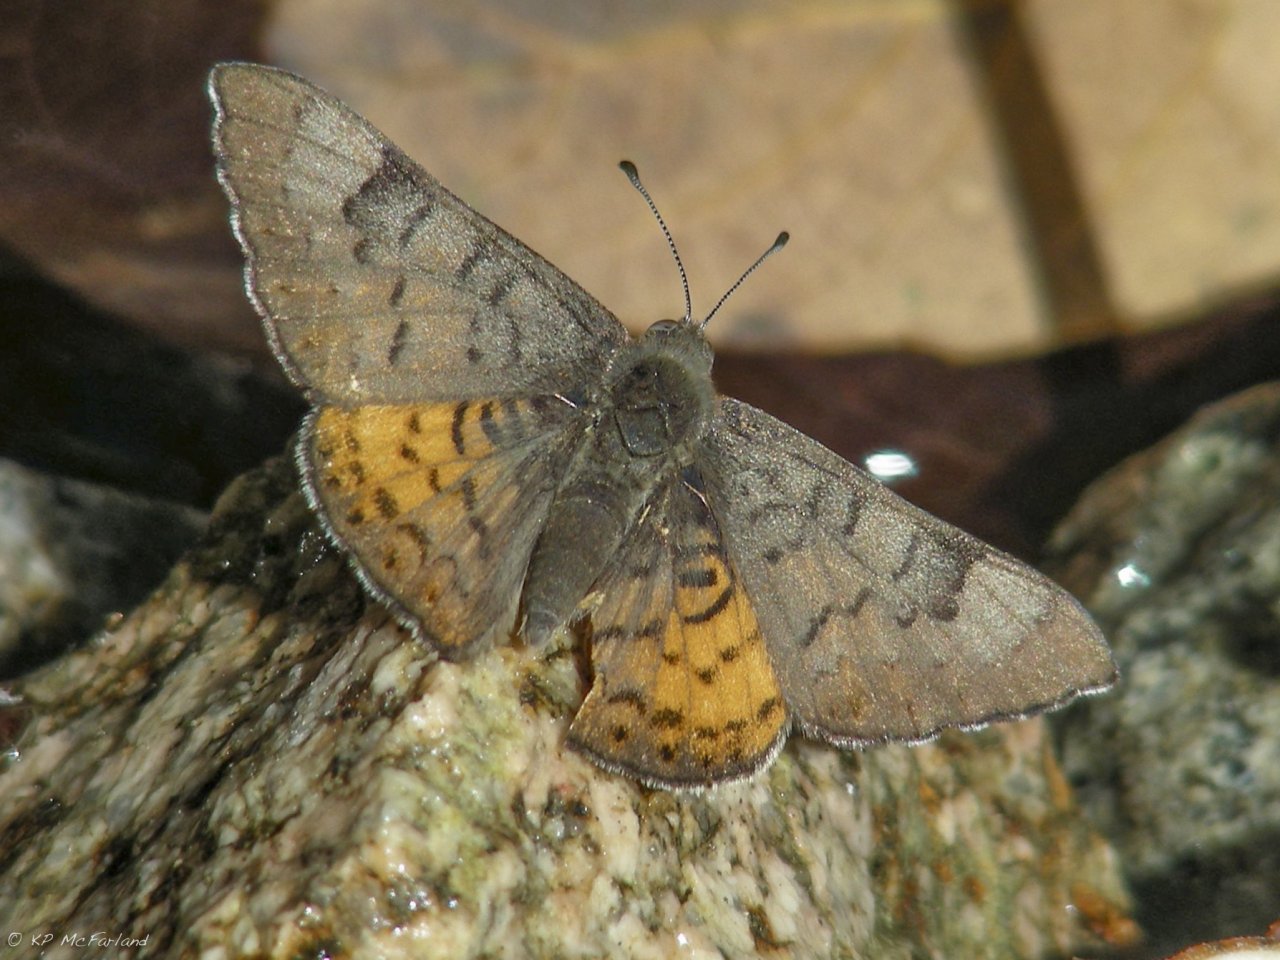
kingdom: Animalia
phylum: Arthropoda
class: Insecta
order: Lepidoptera
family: Lycaenidae
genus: Emesis
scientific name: Emesis zela
